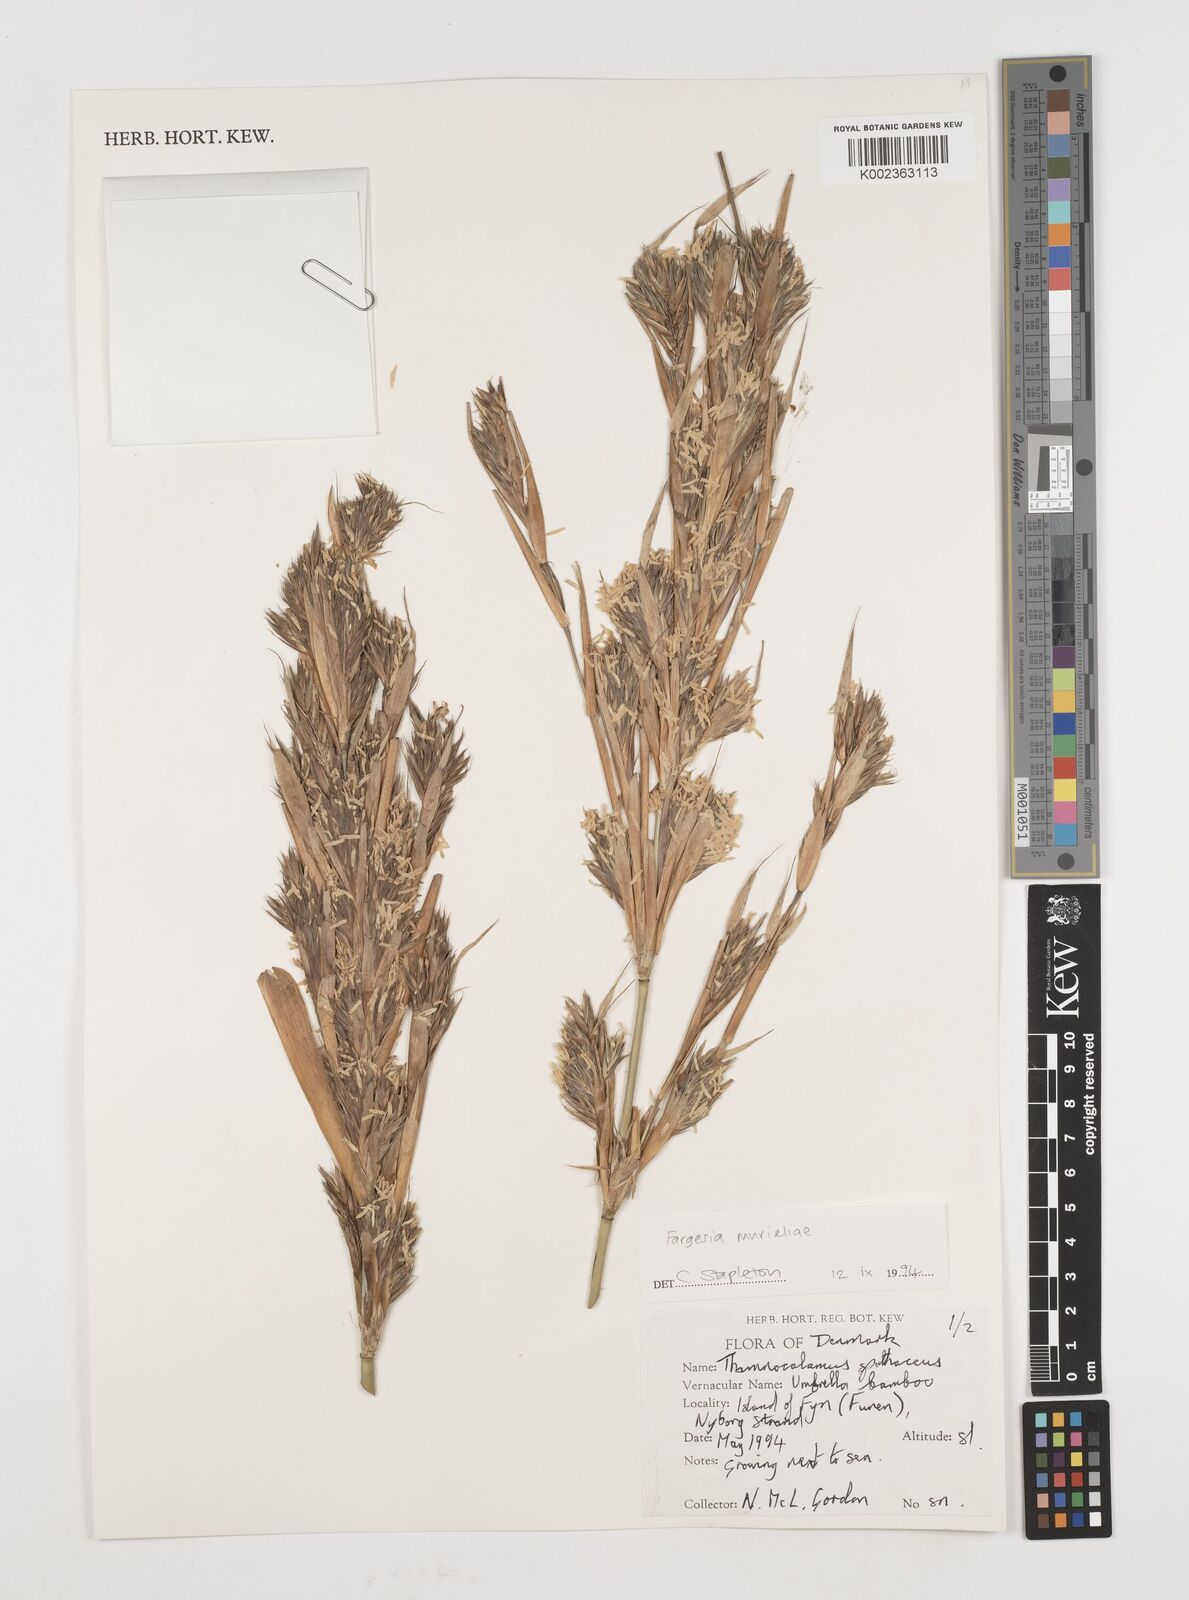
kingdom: Plantae
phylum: Tracheophyta
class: Liliopsida
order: Poales
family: Poaceae
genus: Fargesia
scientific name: Fargesia murielae
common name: Umbrella bamboo
